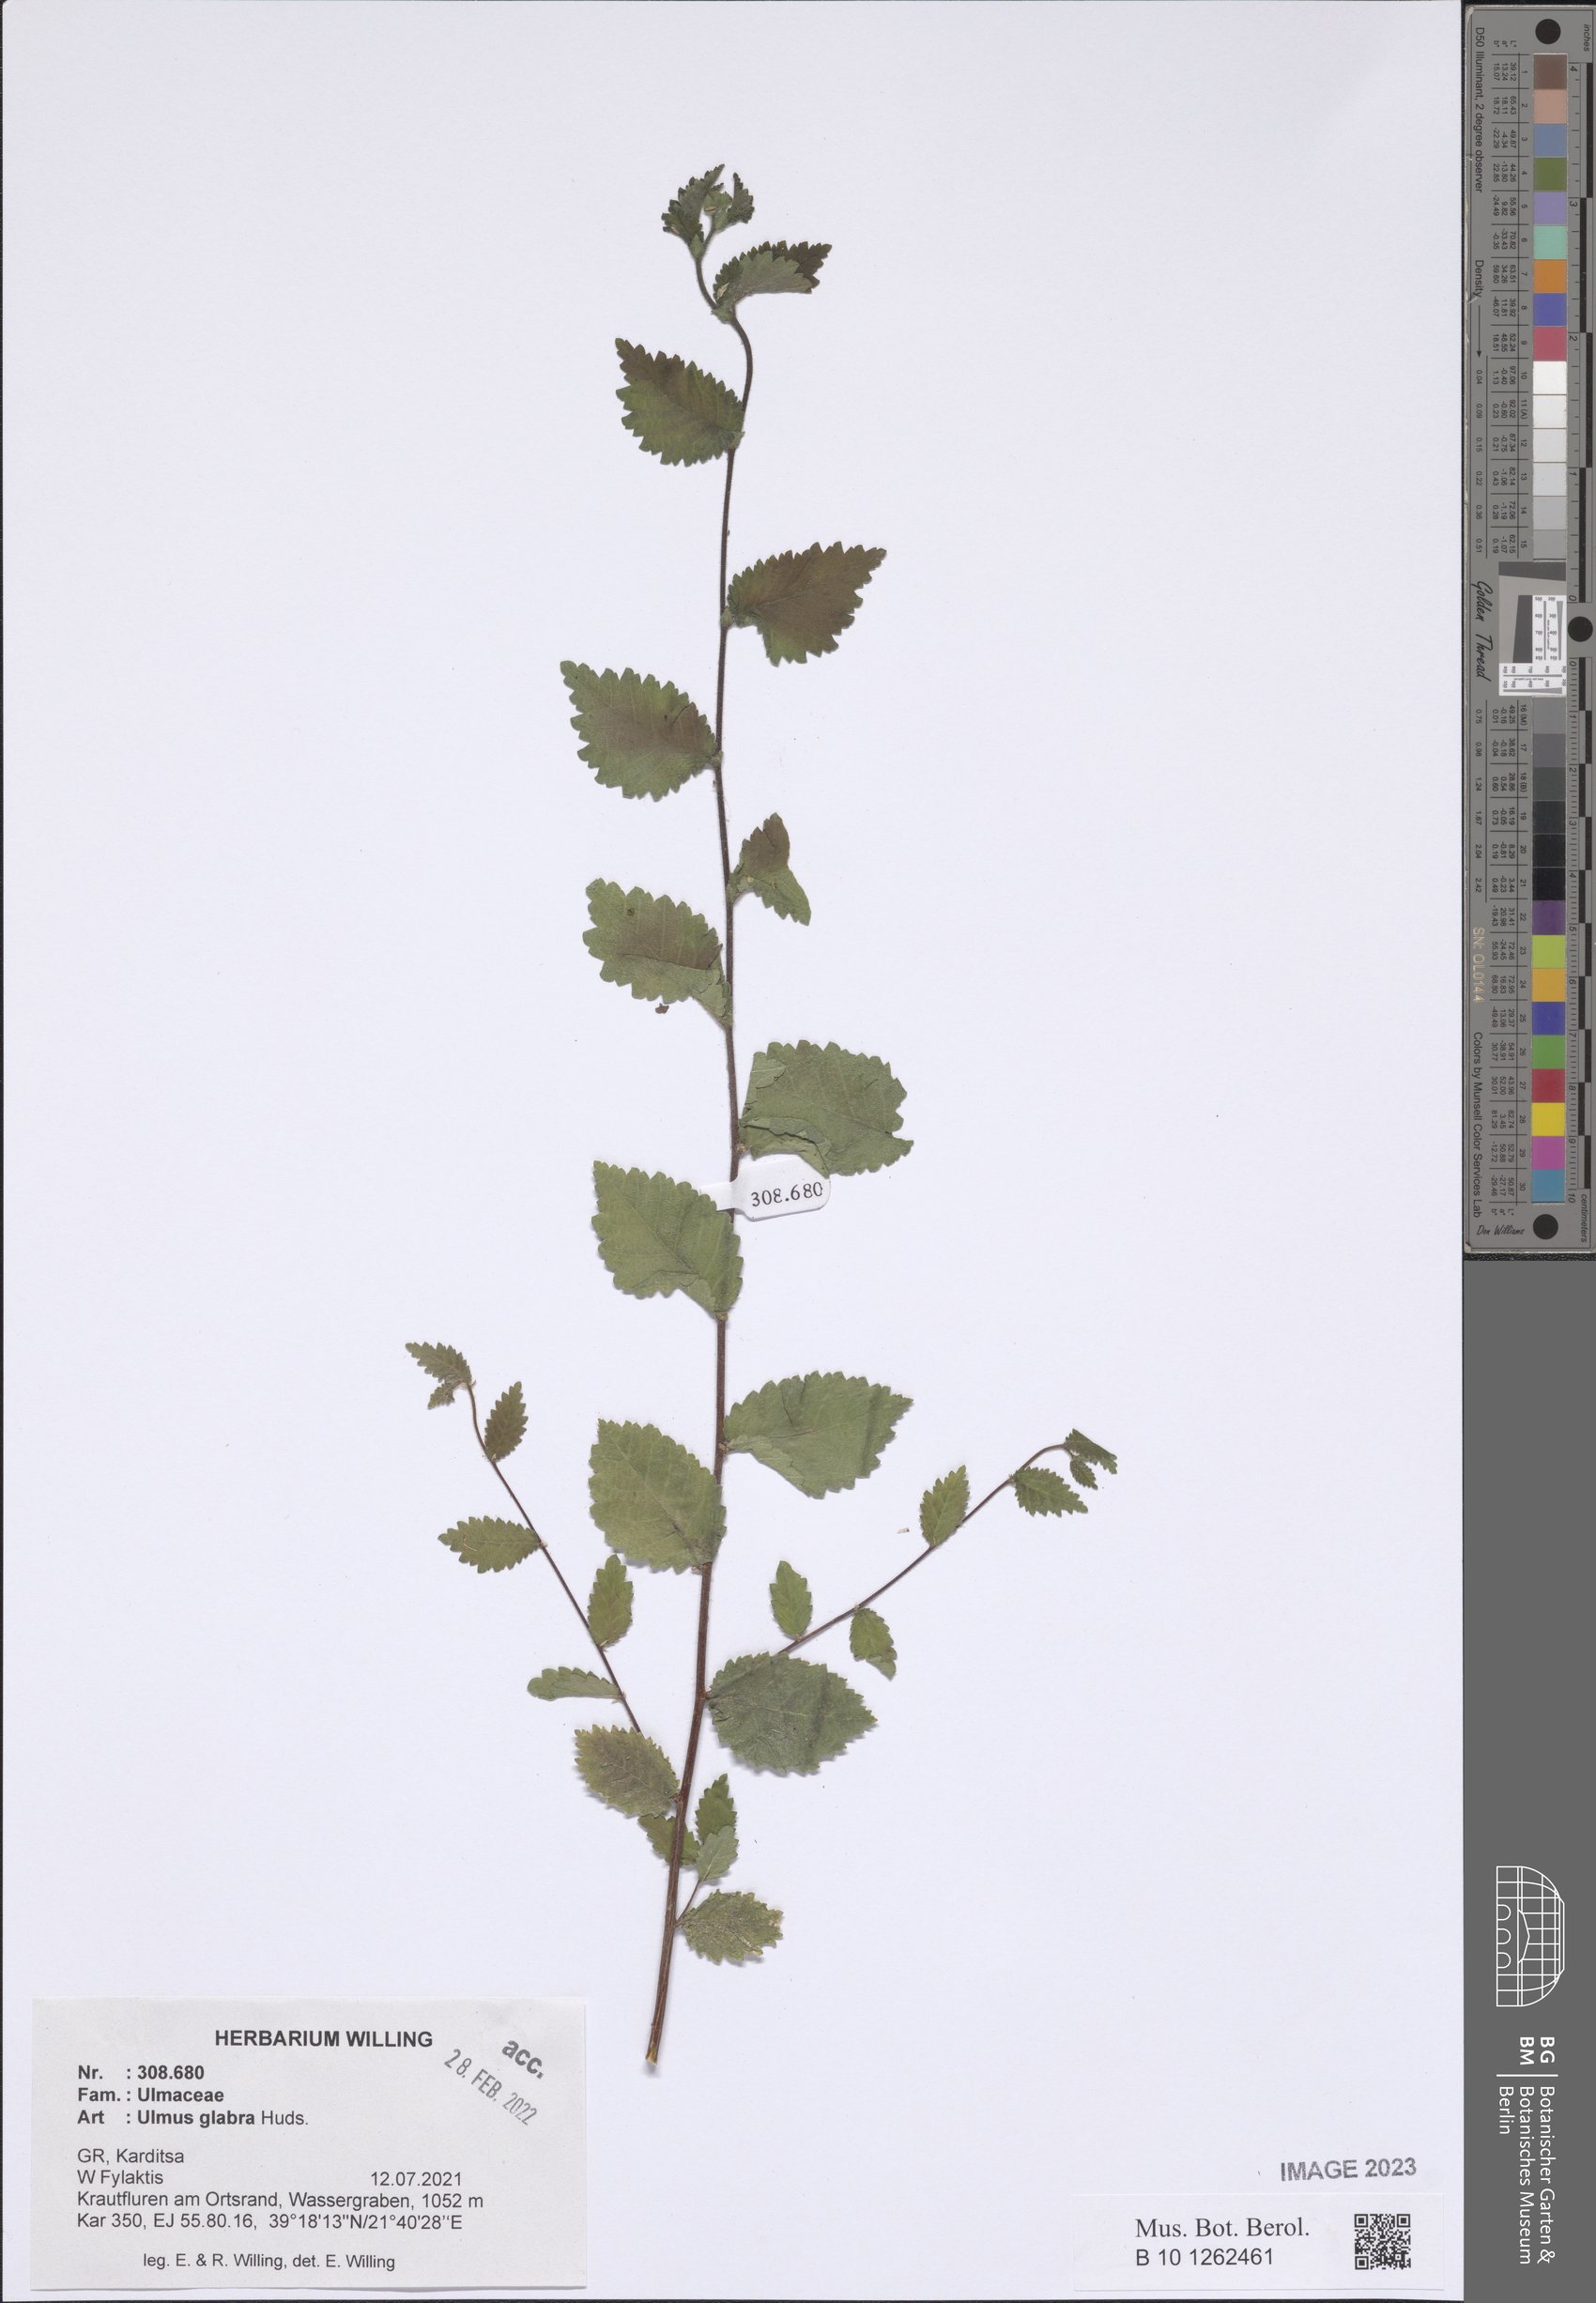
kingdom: Plantae
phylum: Tracheophyta
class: Magnoliopsida
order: Rosales
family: Ulmaceae
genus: Ulmus
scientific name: Ulmus glabra
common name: Wych elm
